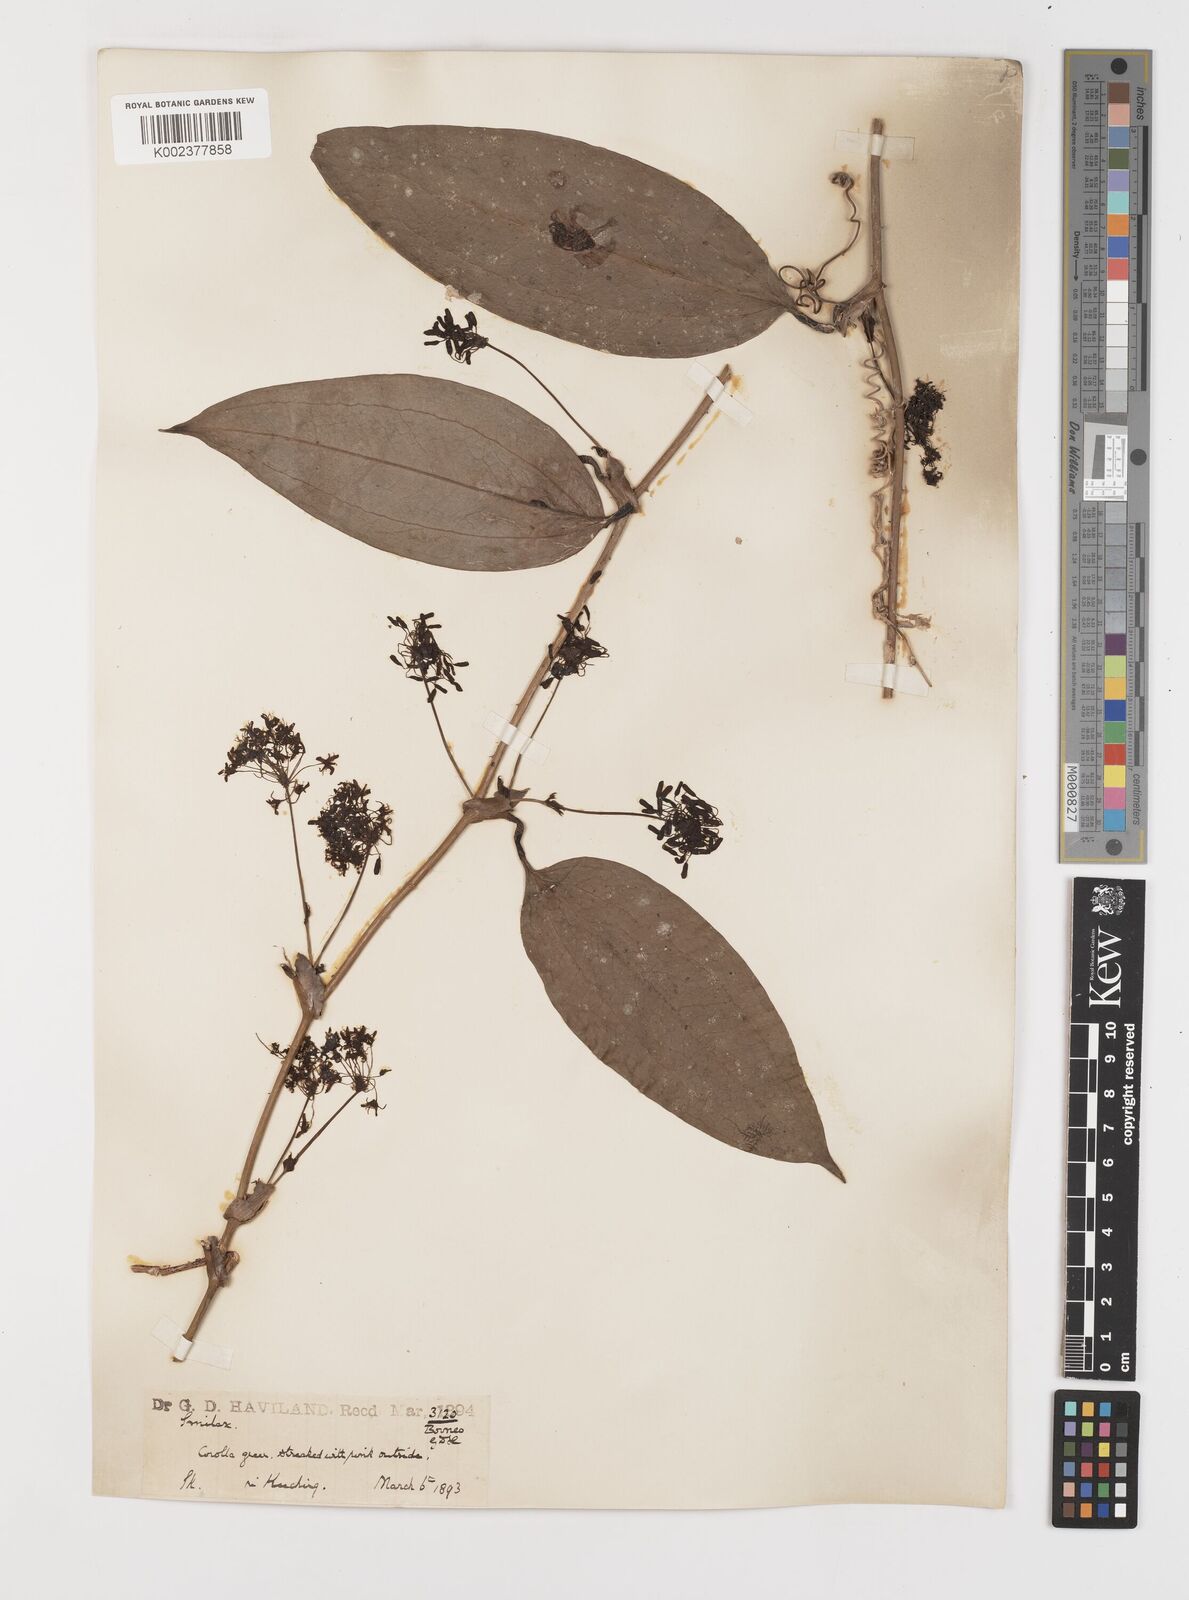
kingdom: Plantae
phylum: Tracheophyta
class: Liliopsida
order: Liliales
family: Smilacaceae
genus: Smilax
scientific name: Smilax
